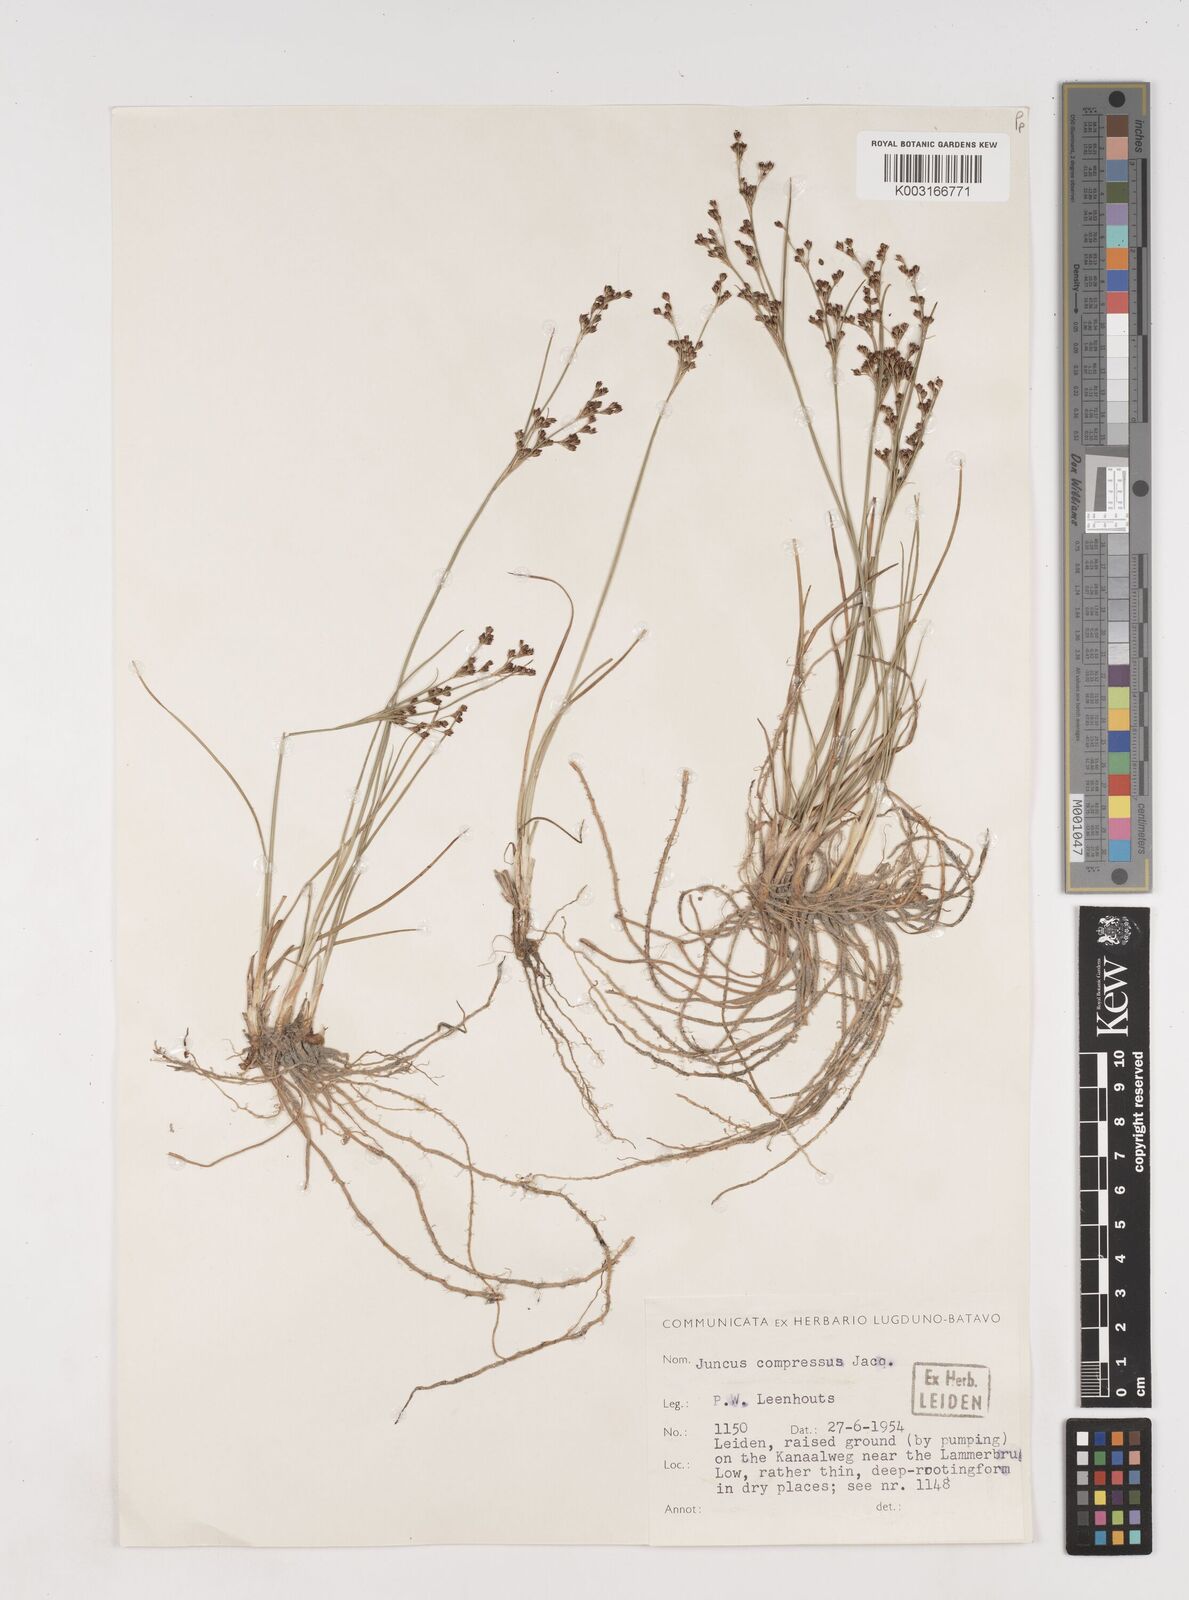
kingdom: Plantae
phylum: Tracheophyta
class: Liliopsida
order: Poales
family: Juncaceae
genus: Juncus
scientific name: Juncus
